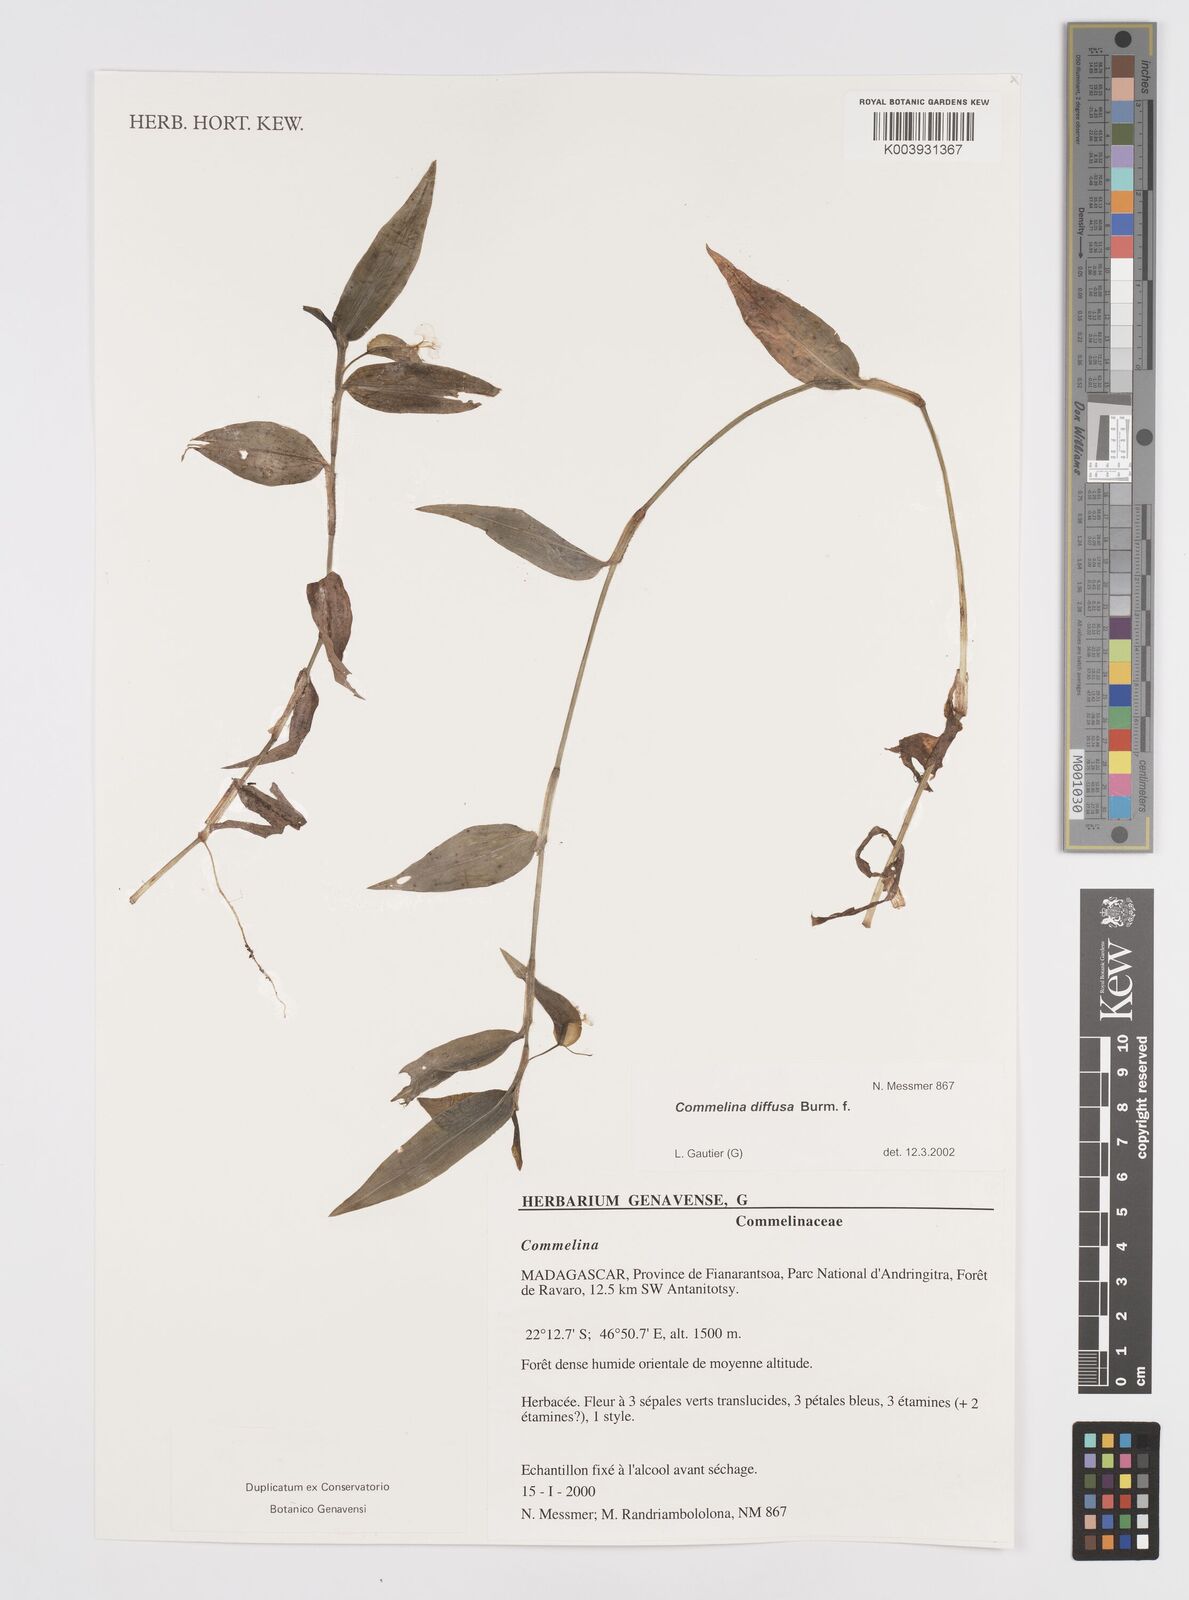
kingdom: Plantae
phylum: Tracheophyta
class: Liliopsida
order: Commelinales
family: Commelinaceae
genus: Commelina
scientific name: Commelina diffusa
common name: Climbing dayflower
